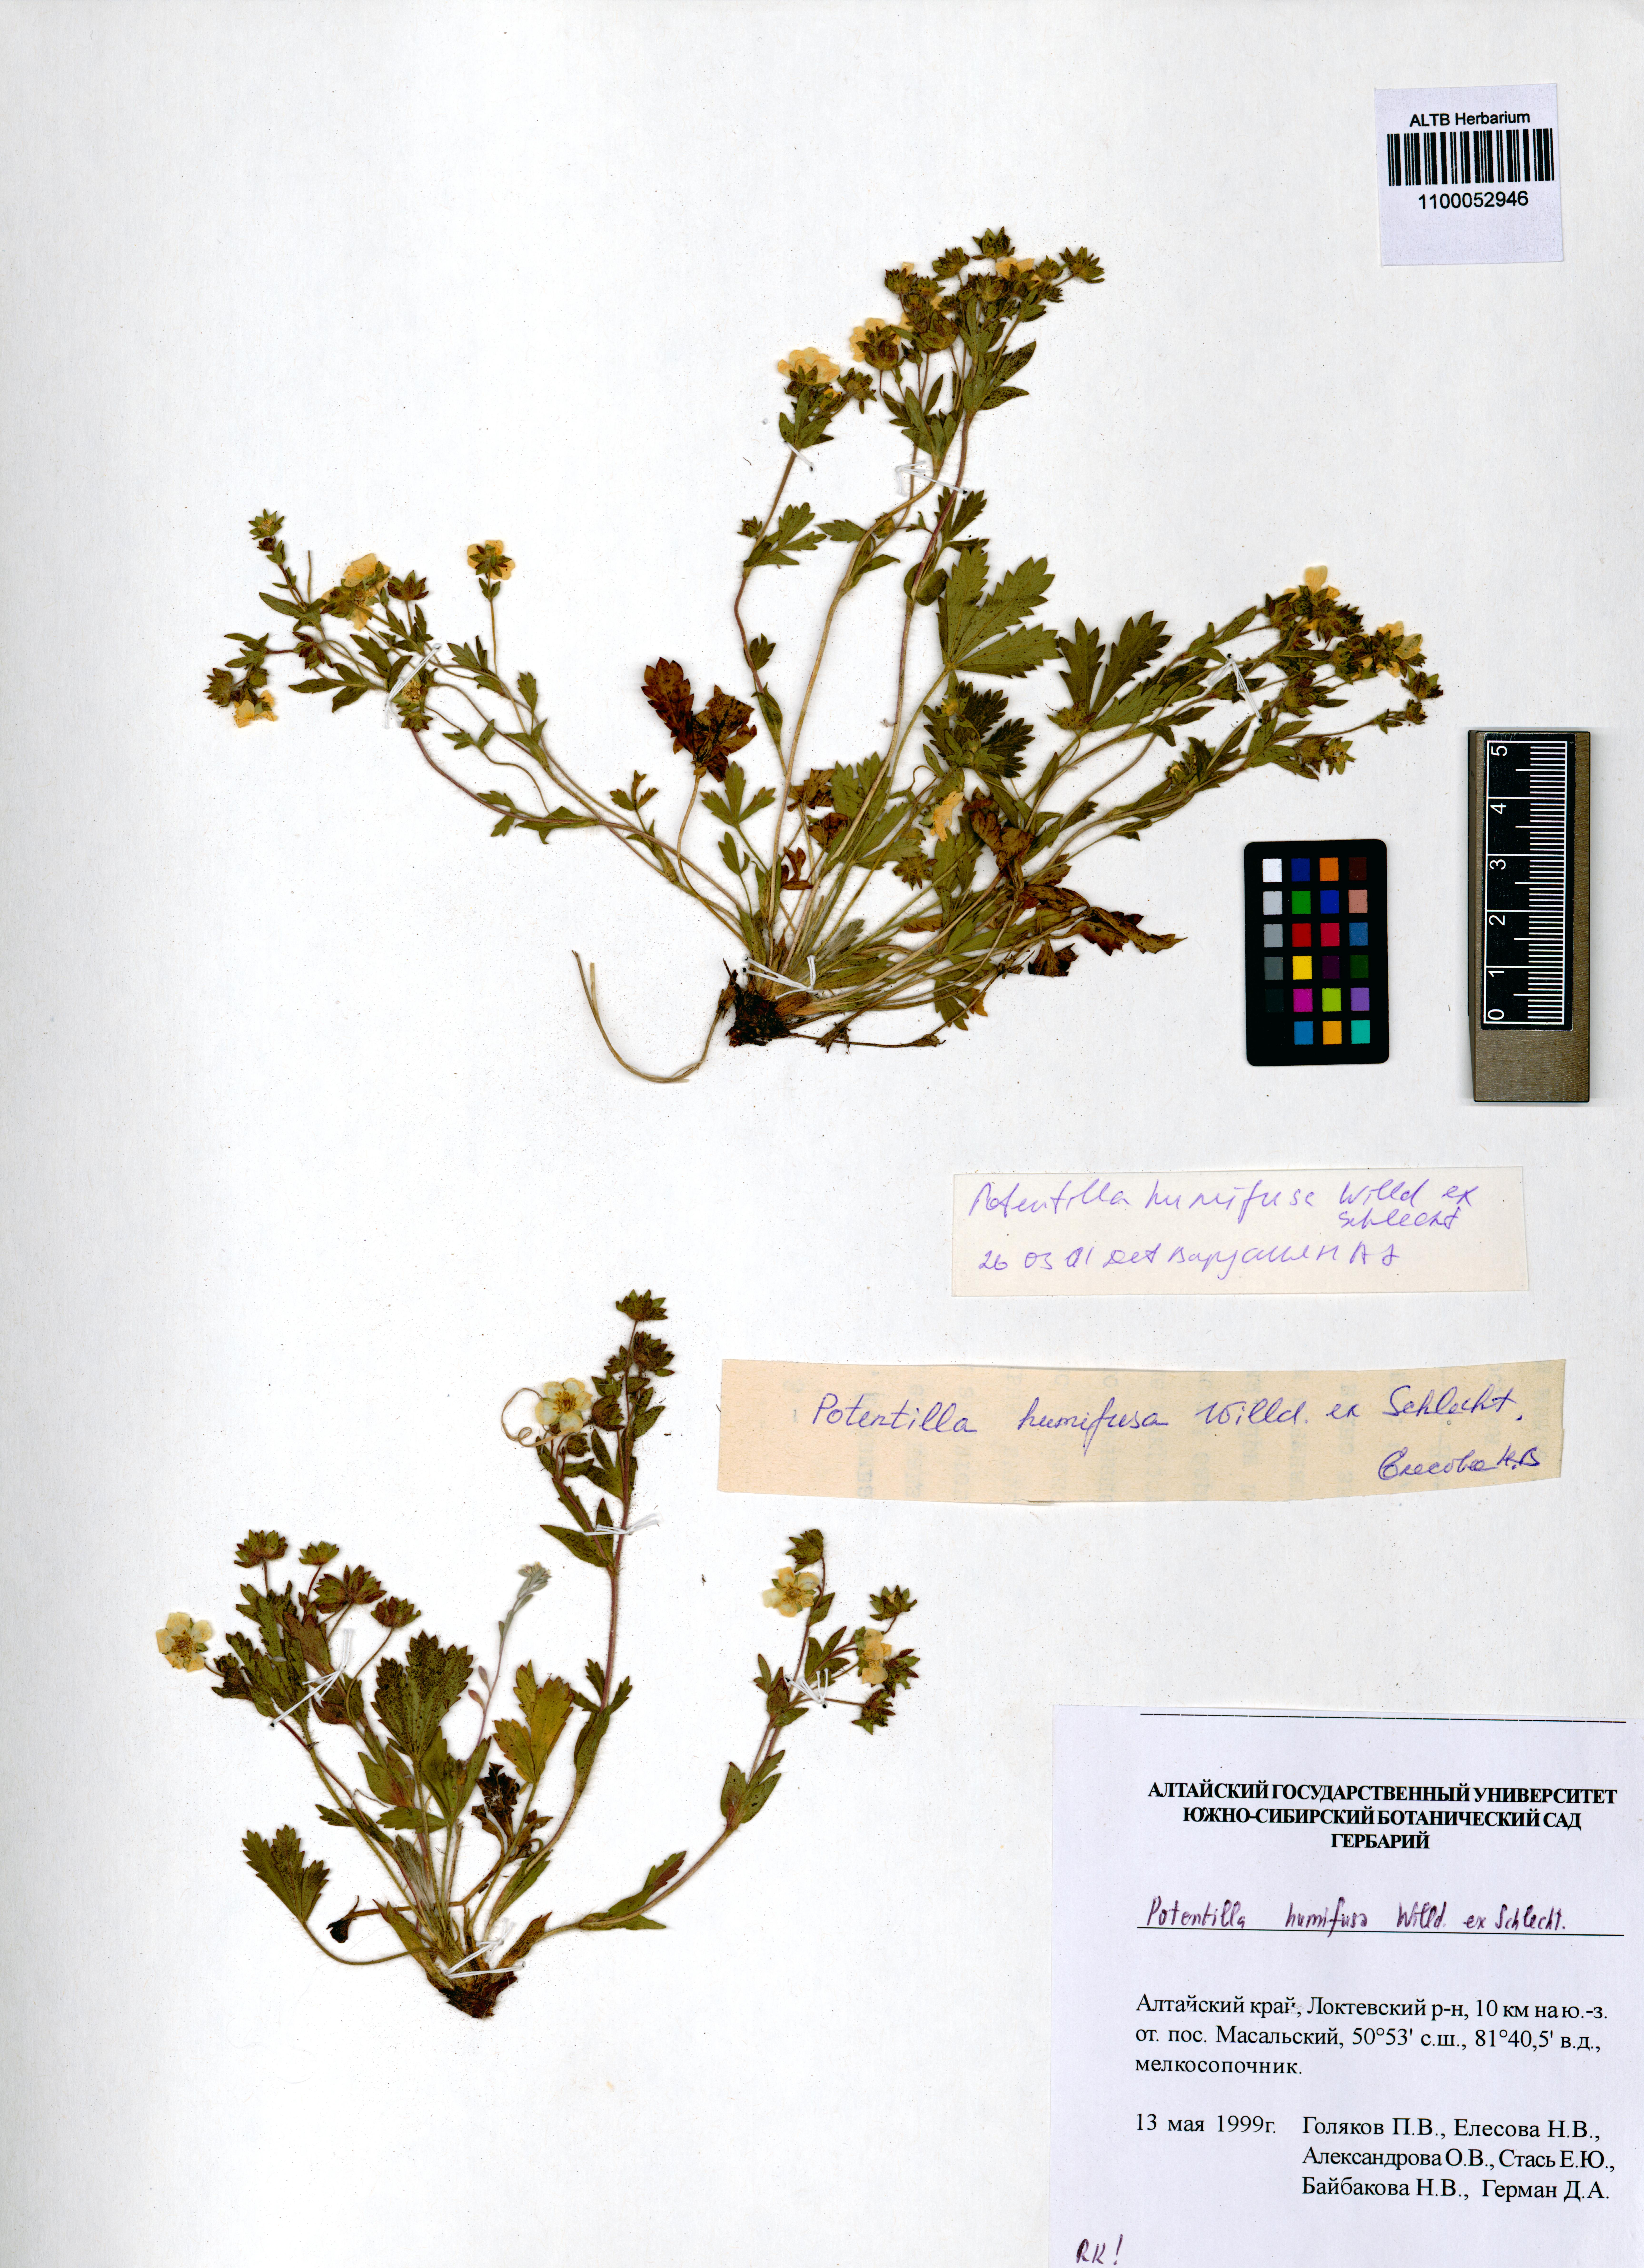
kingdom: Plantae
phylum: Tracheophyta
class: Magnoliopsida
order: Rosales
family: Rosaceae
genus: Potentilla
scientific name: Potentilla humifusa
